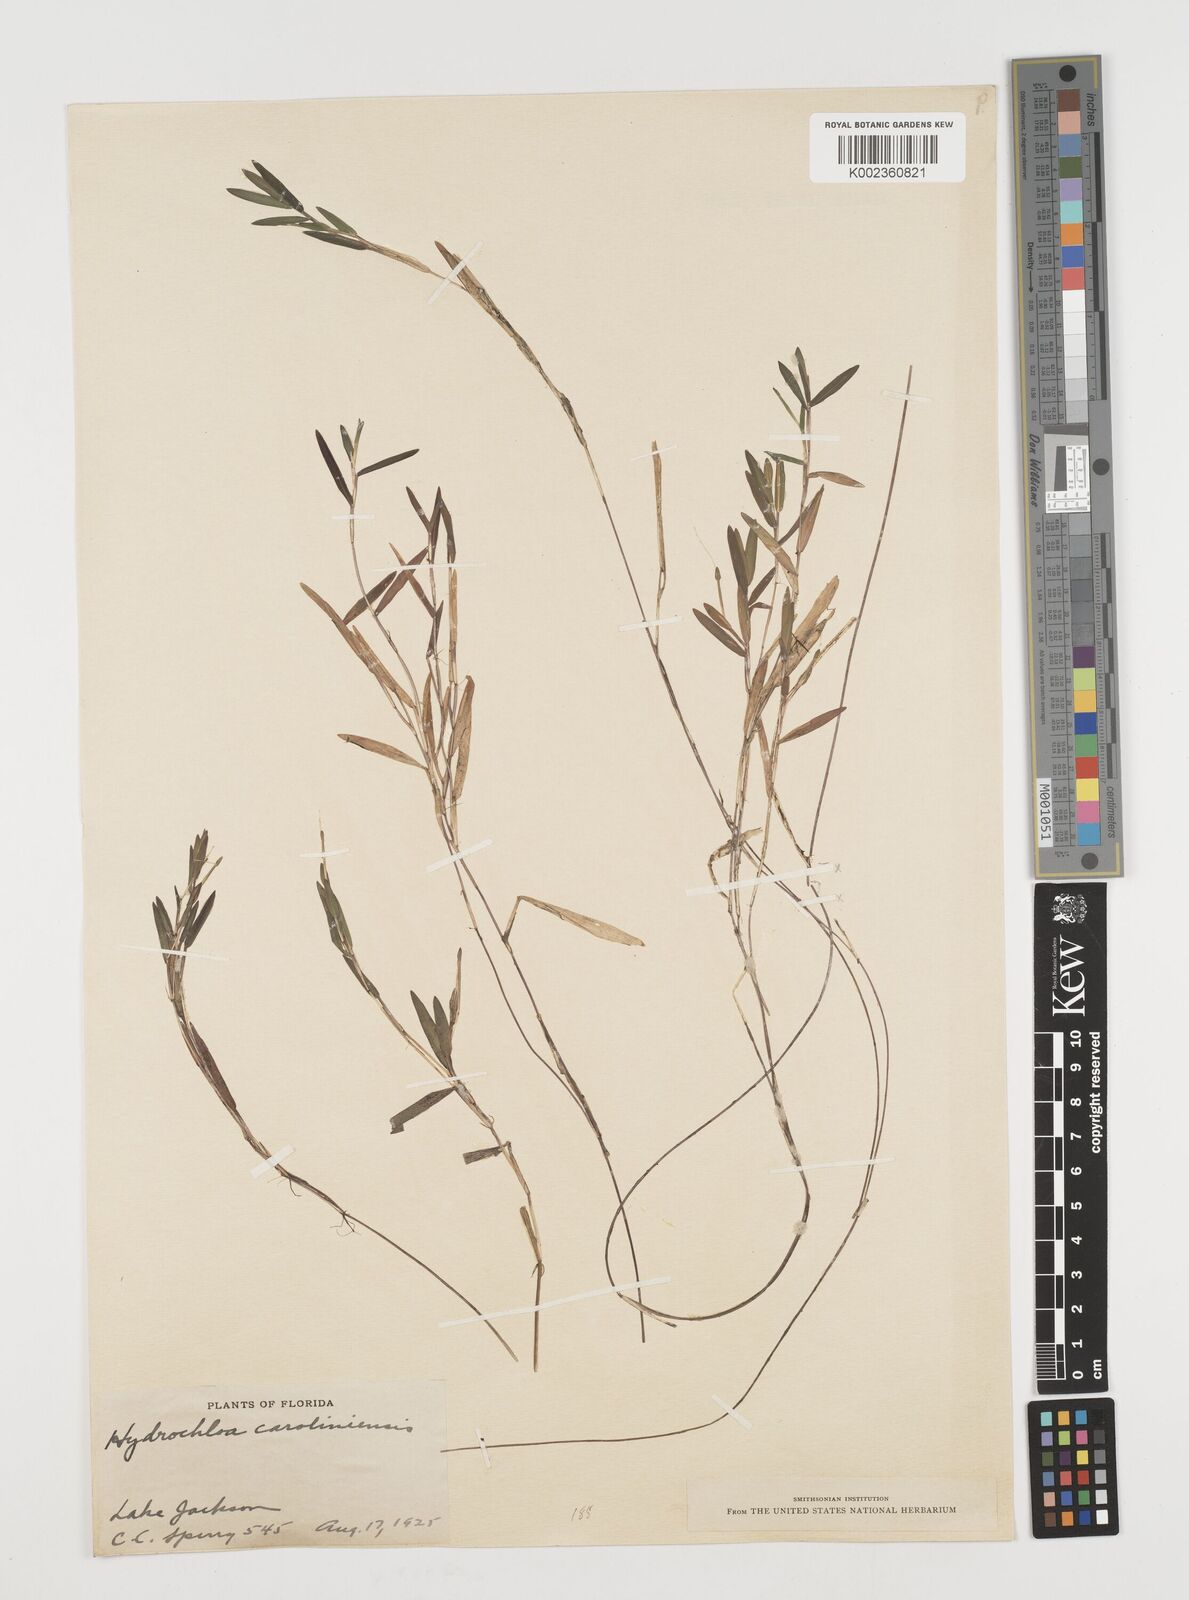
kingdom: Plantae
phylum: Tracheophyta
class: Liliopsida
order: Poales
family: Poaceae
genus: Luziola
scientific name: Luziola fluitans
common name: Silverleaf grass
